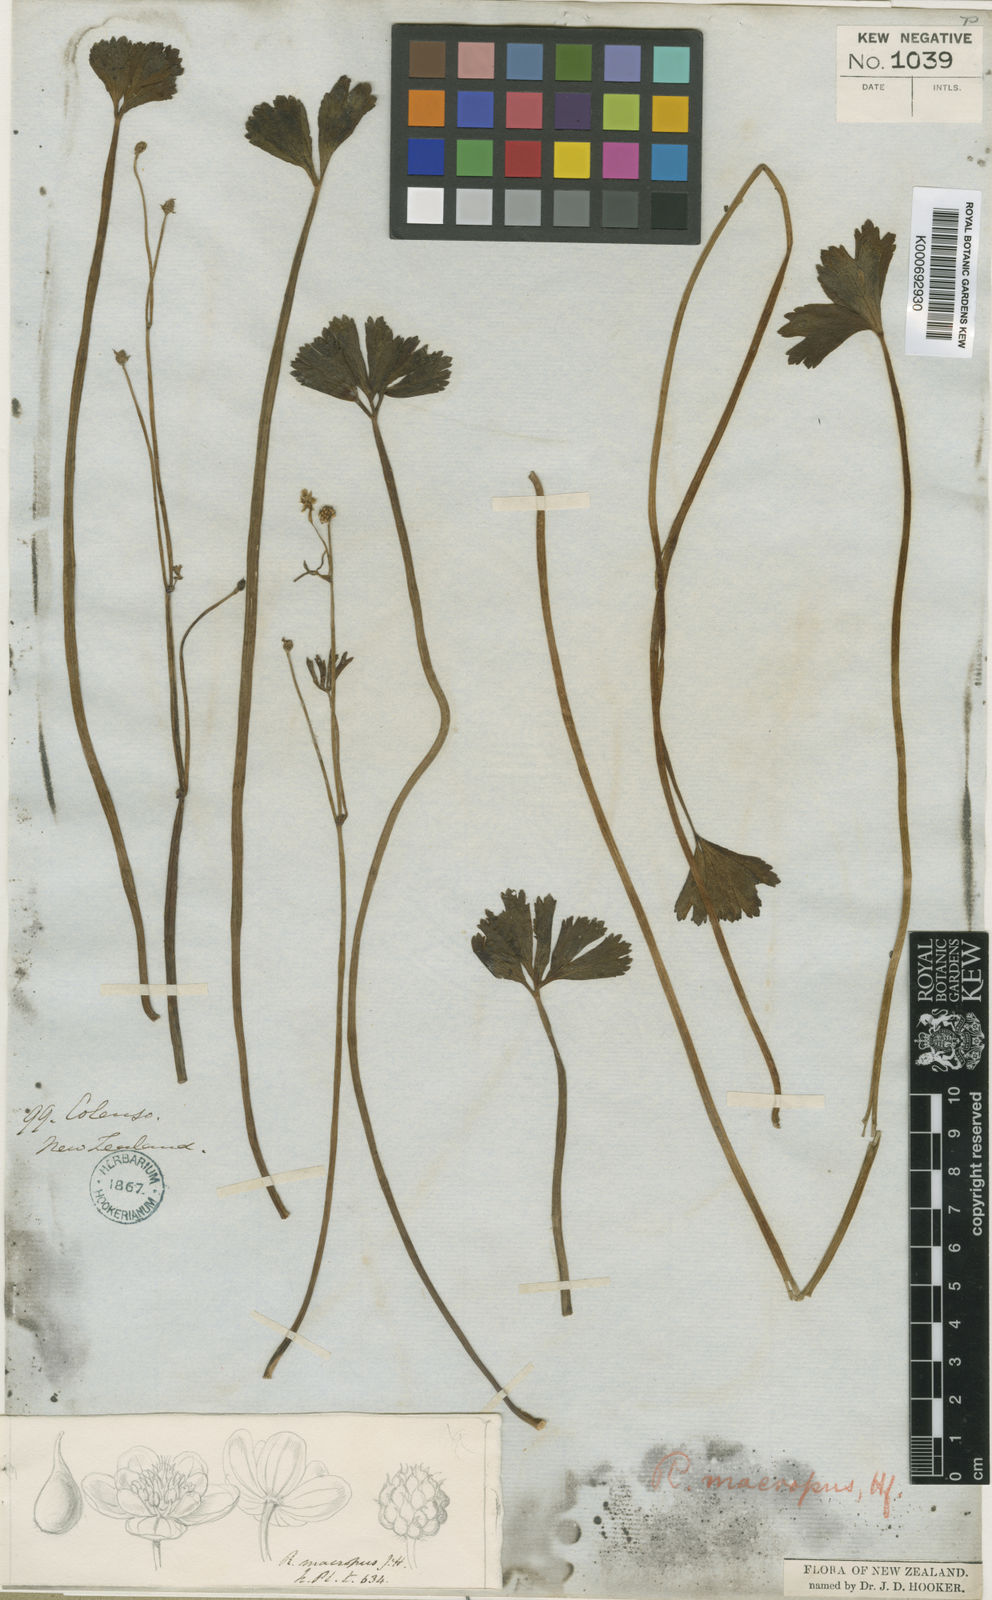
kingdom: Plantae
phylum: Tracheophyta
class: Magnoliopsida
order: Ranunculales
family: Ranunculaceae
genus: Ranunculus
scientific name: Ranunculus macropus
